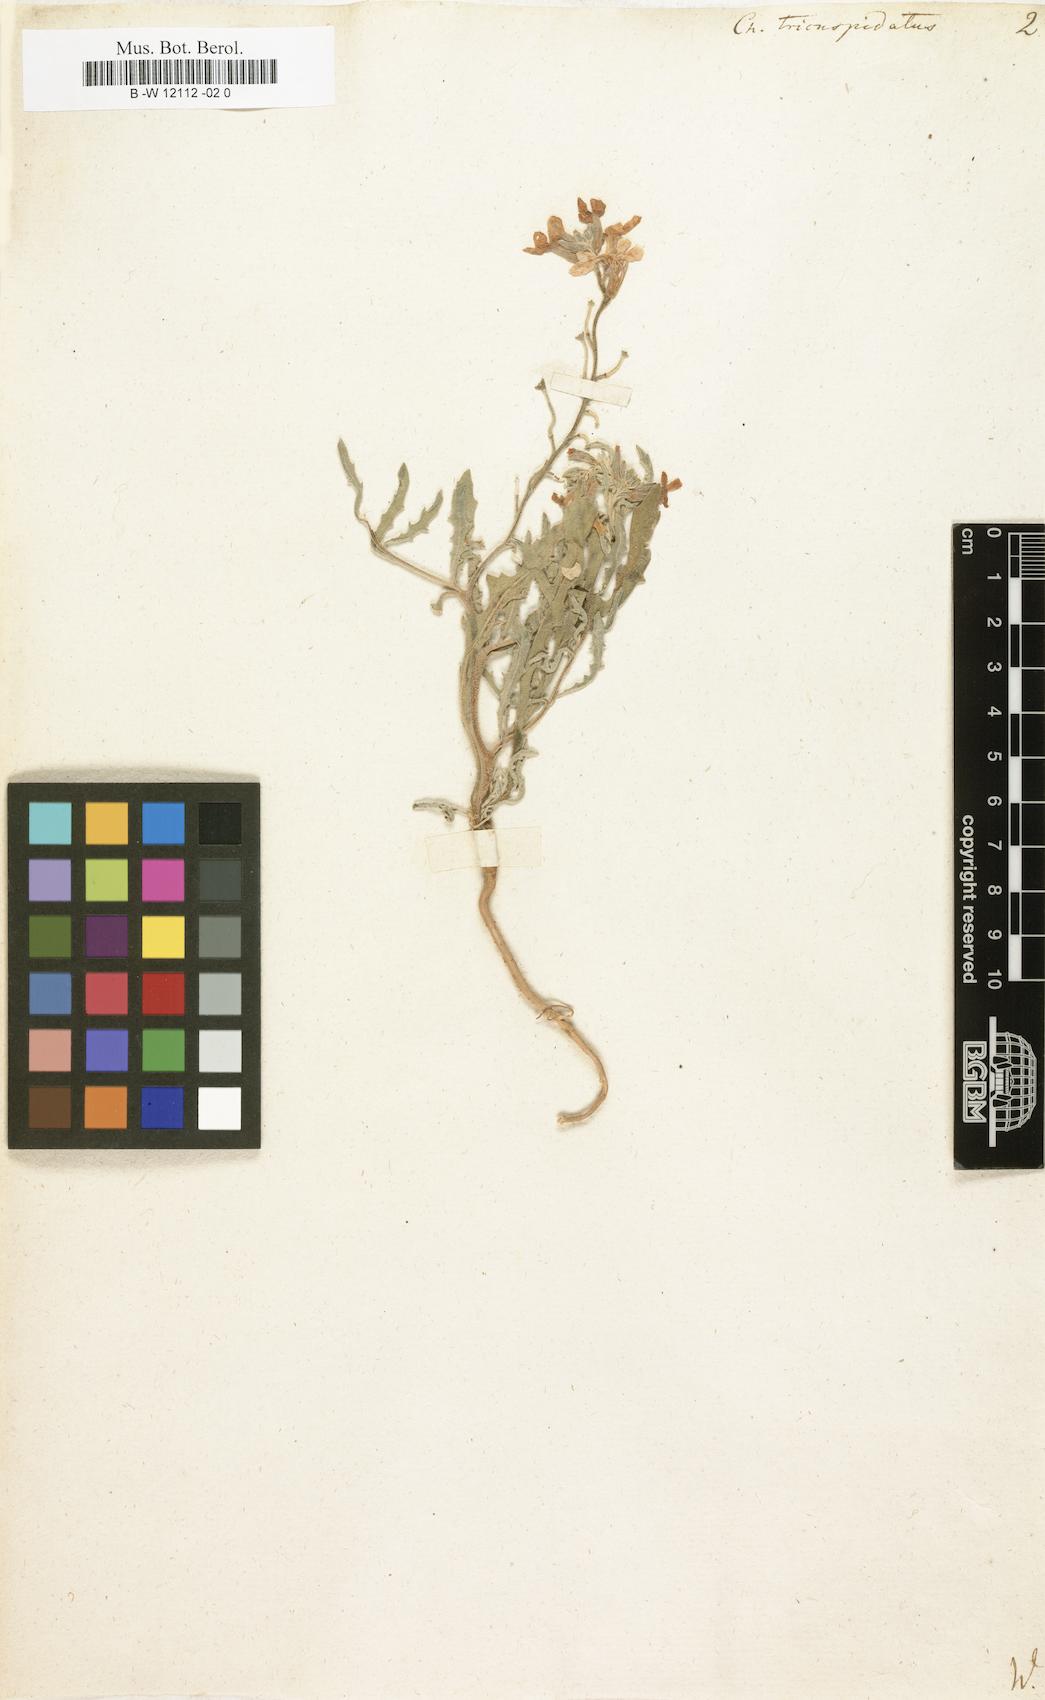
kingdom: Plantae
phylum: Tracheophyta
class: Magnoliopsida
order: Brassicales
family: Brassicaceae
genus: Matthiola
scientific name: Matthiola
